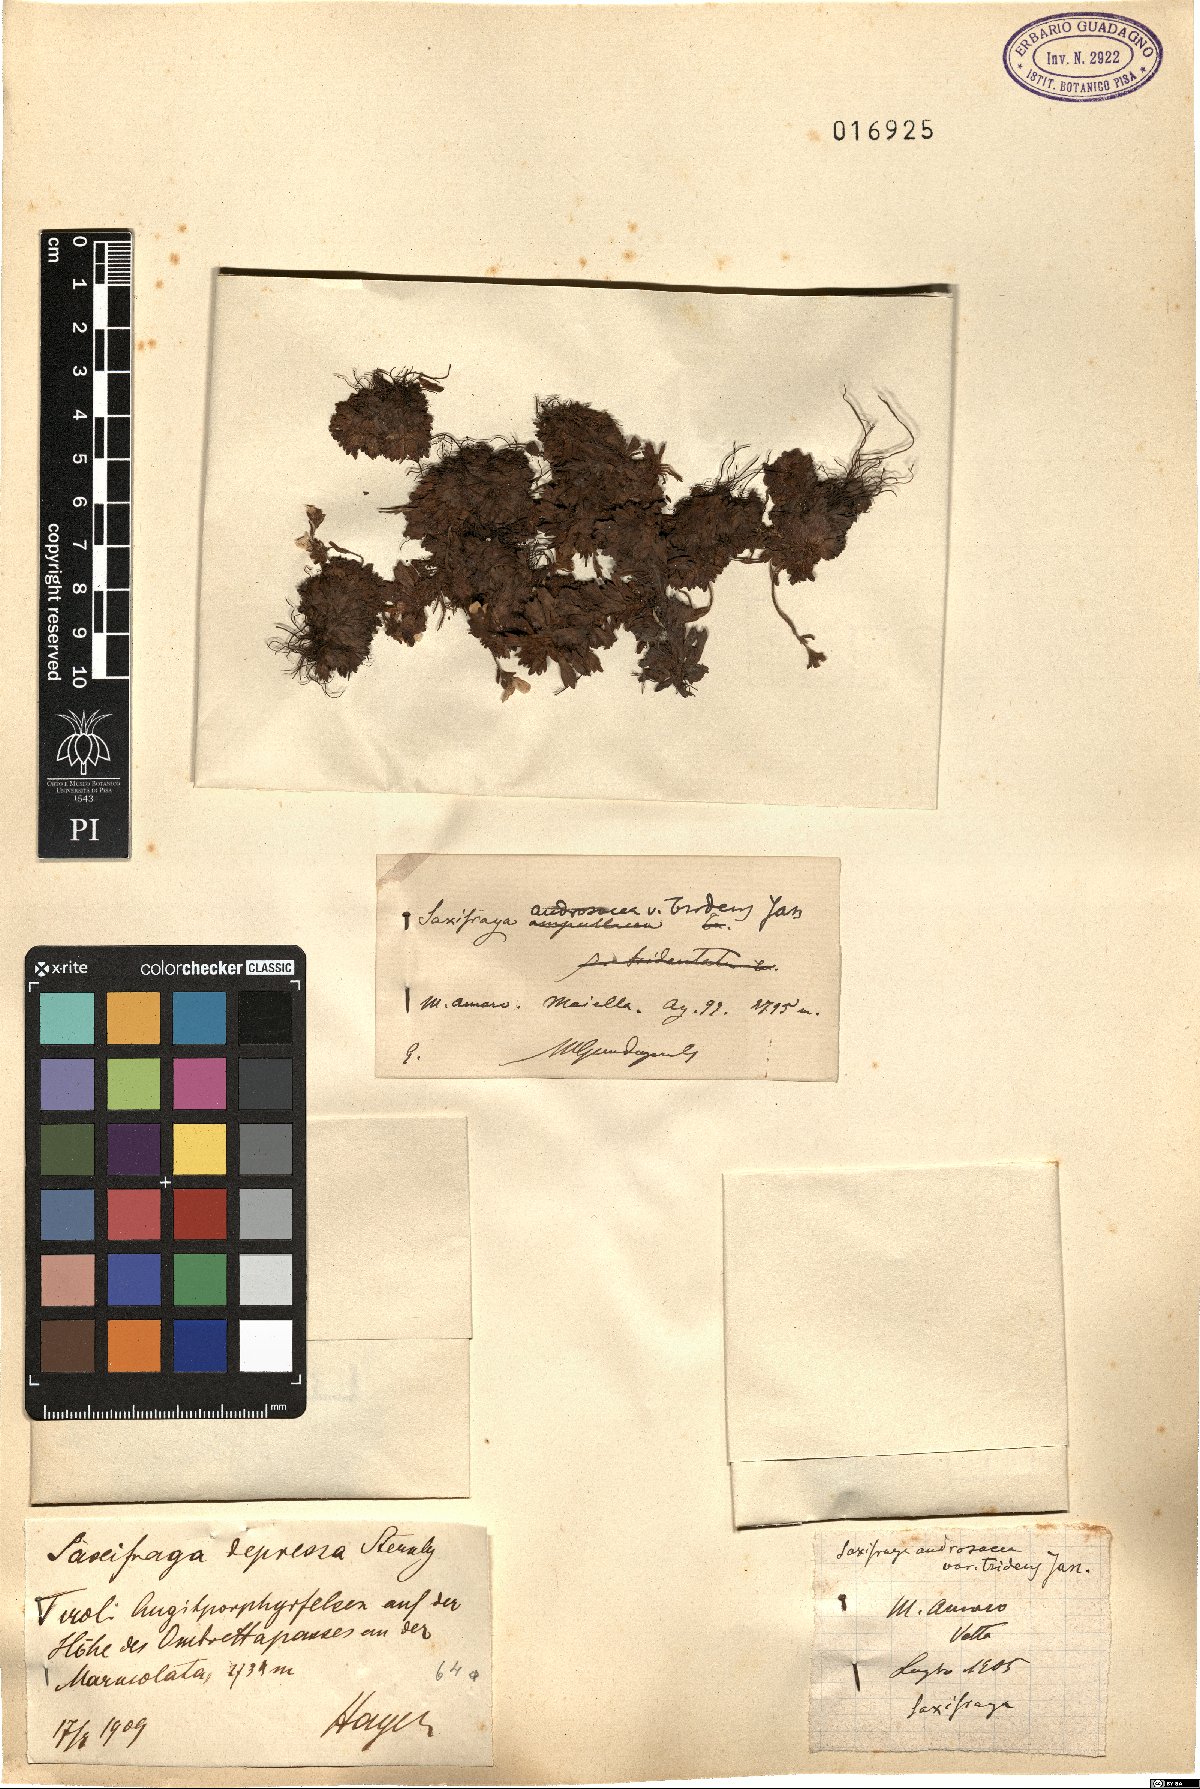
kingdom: Plantae
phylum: Tracheophyta
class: Magnoliopsida
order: Saxifragales
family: Saxifragaceae
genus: Saxifraga
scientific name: Saxifraga italica
